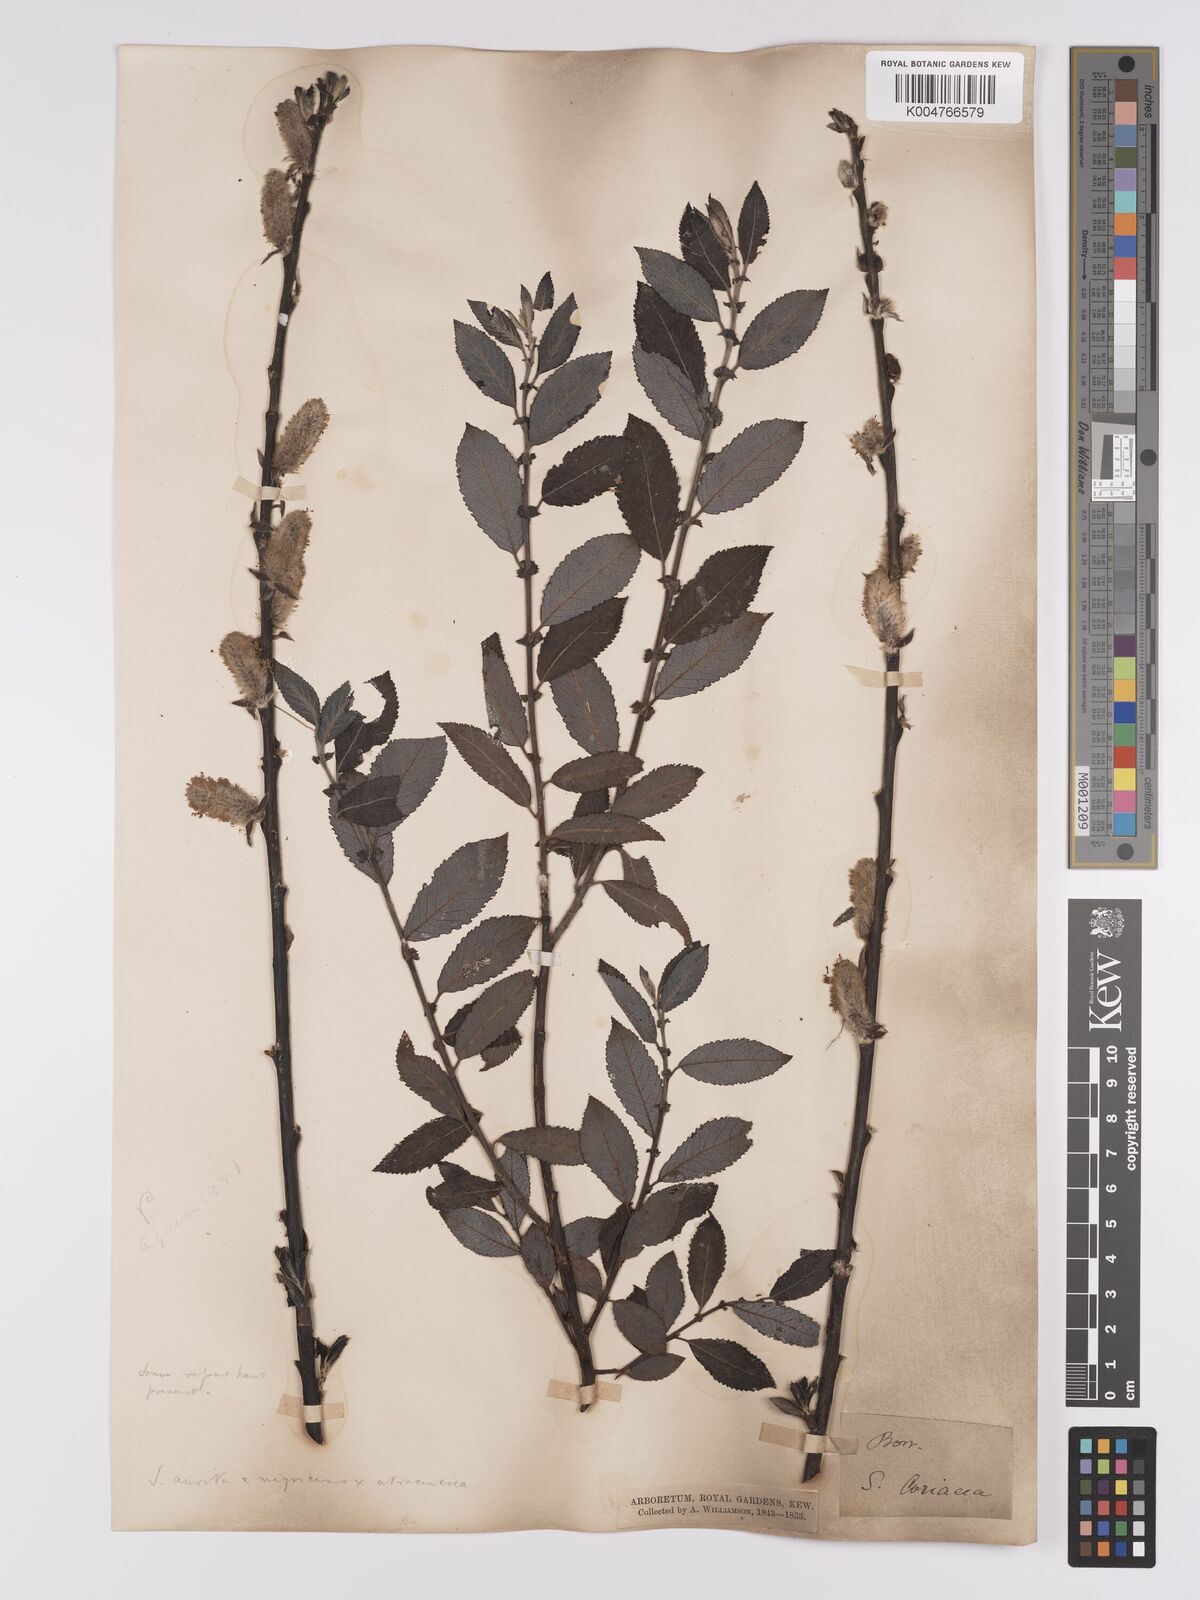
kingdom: Plantae
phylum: Tracheophyta
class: Magnoliopsida
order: Malpighiales
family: Salicaceae
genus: Salix
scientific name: Salix
